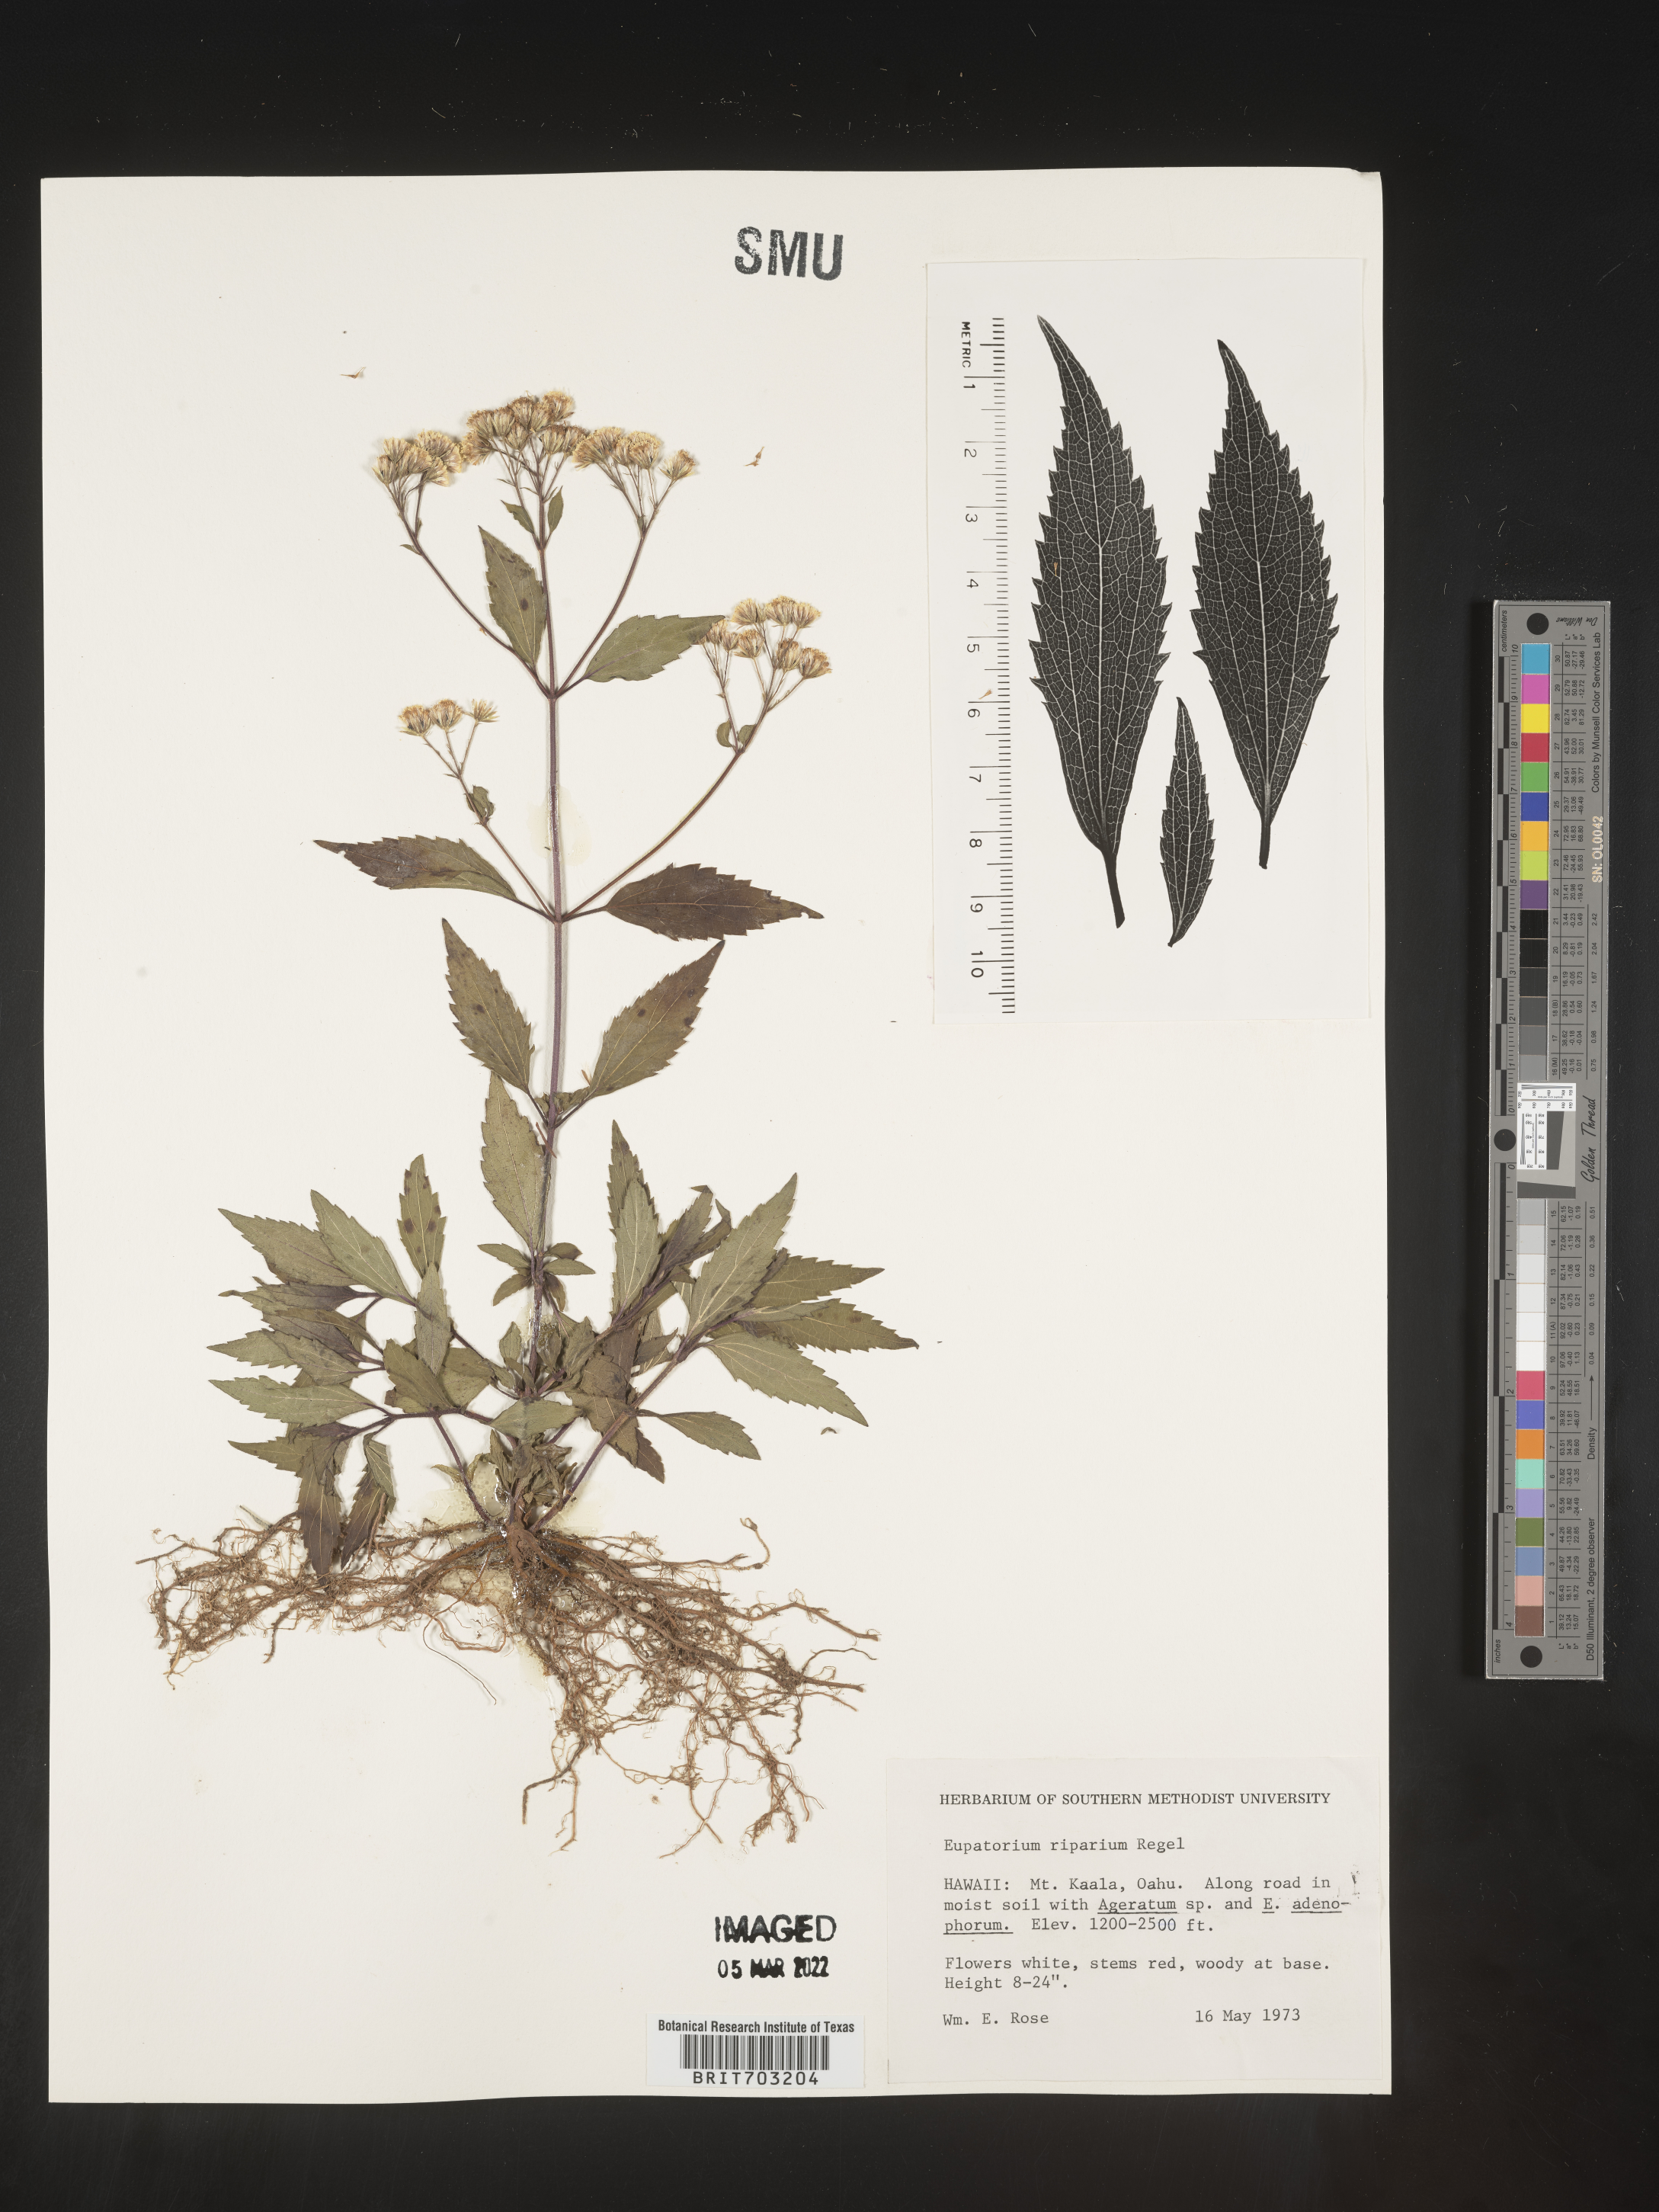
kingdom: Plantae
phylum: Tracheophyta
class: Magnoliopsida
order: Asterales
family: Asteraceae
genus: Eupatorium
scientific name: Eupatorium
